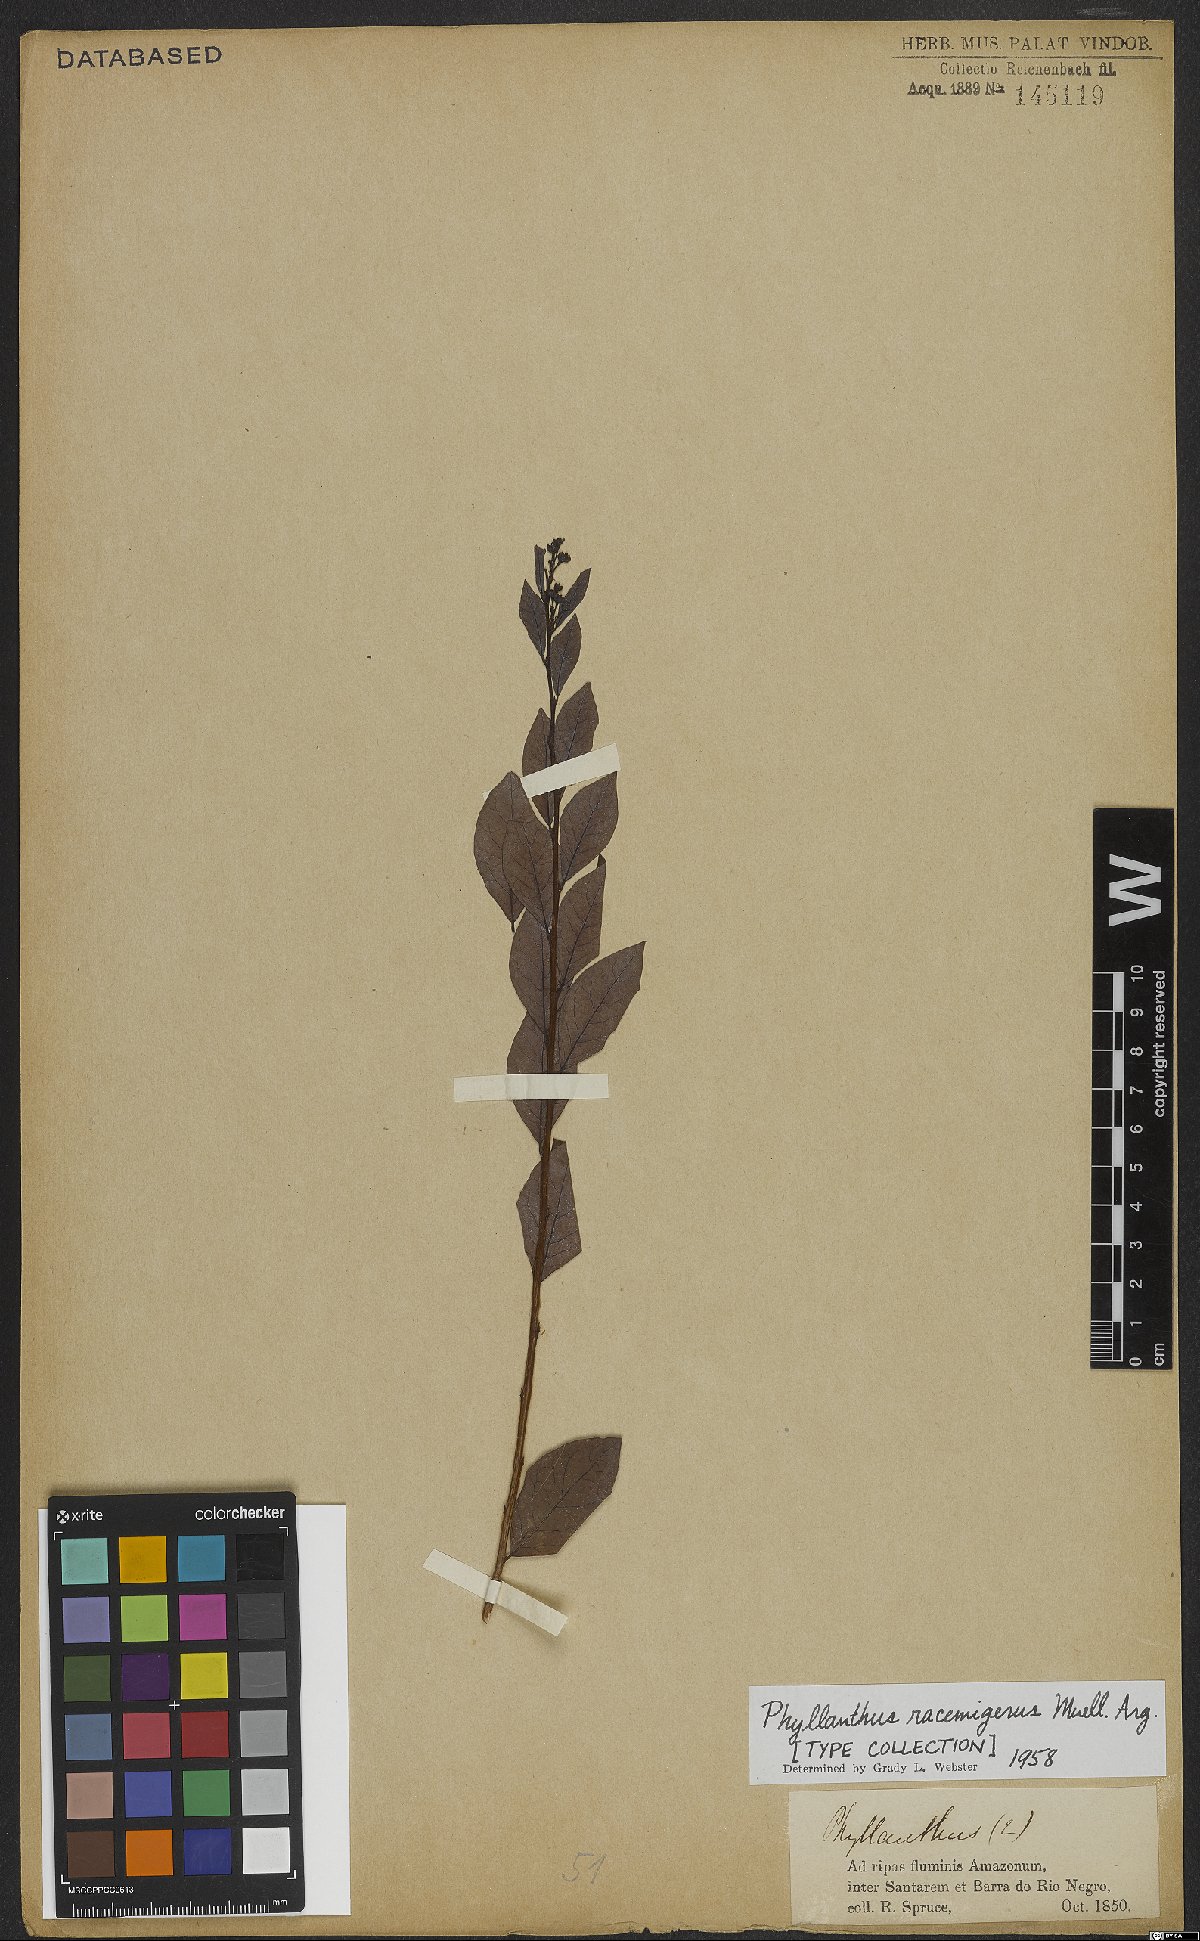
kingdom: Plantae
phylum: Tracheophyta
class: Magnoliopsida
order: Malpighiales
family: Phyllanthaceae
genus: Phyllanthus
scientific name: Phyllanthus racemigerus
